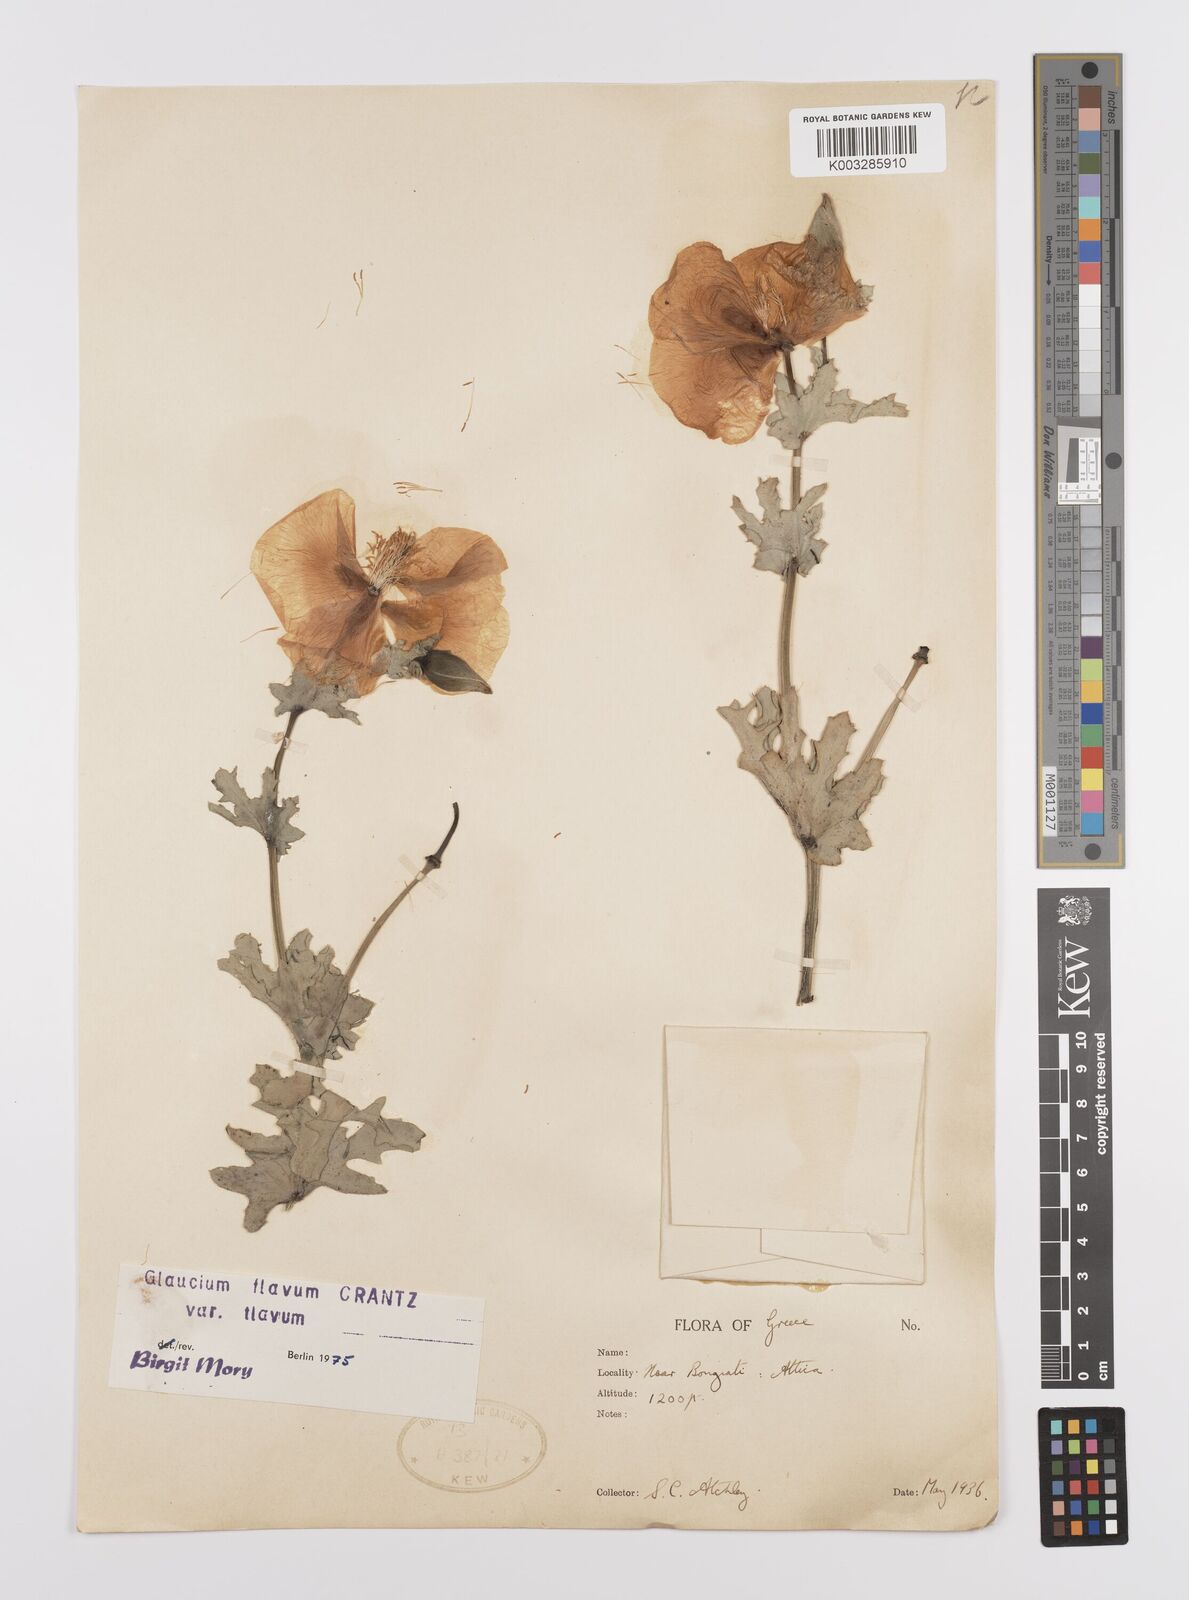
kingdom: Plantae
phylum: Tracheophyta
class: Magnoliopsida
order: Ranunculales
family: Papaveraceae
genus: Glaucium
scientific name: Glaucium flavum
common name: Yellow horned-poppy
